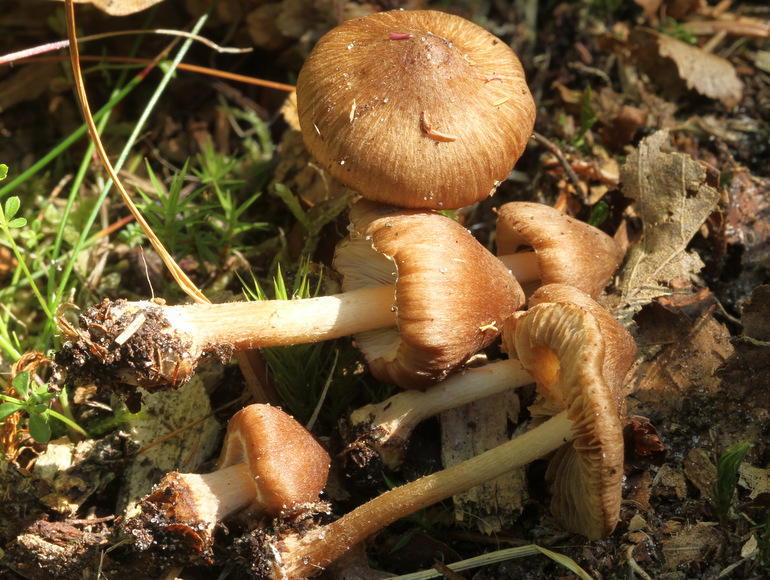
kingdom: Fungi
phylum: Basidiomycota
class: Agaricomycetes
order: Agaricales
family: Inocybaceae
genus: Inocybe
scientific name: Inocybe napipes
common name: roeknoldet trævlhat
